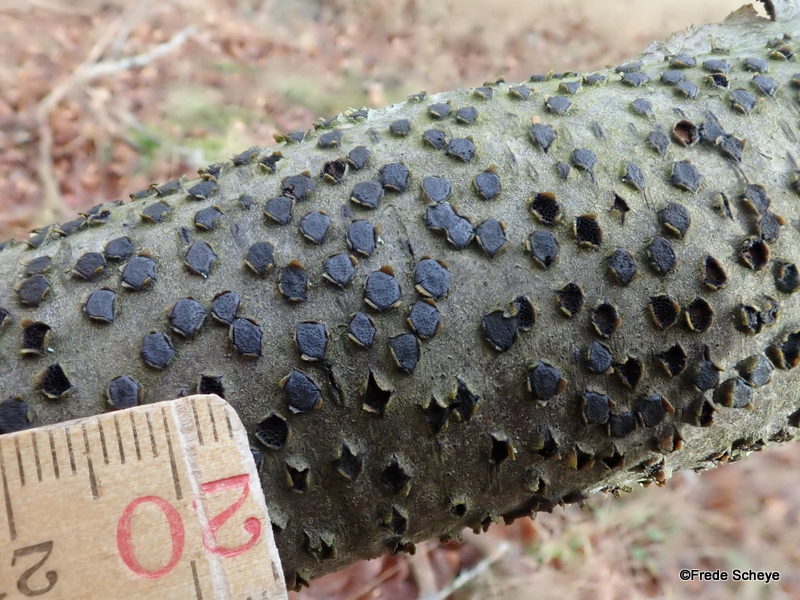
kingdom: Fungi
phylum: Ascomycota
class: Sordariomycetes
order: Xylariales
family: Diatrypaceae
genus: Diatrype
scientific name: Diatrype disciformis
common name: kant-kulskorpe
